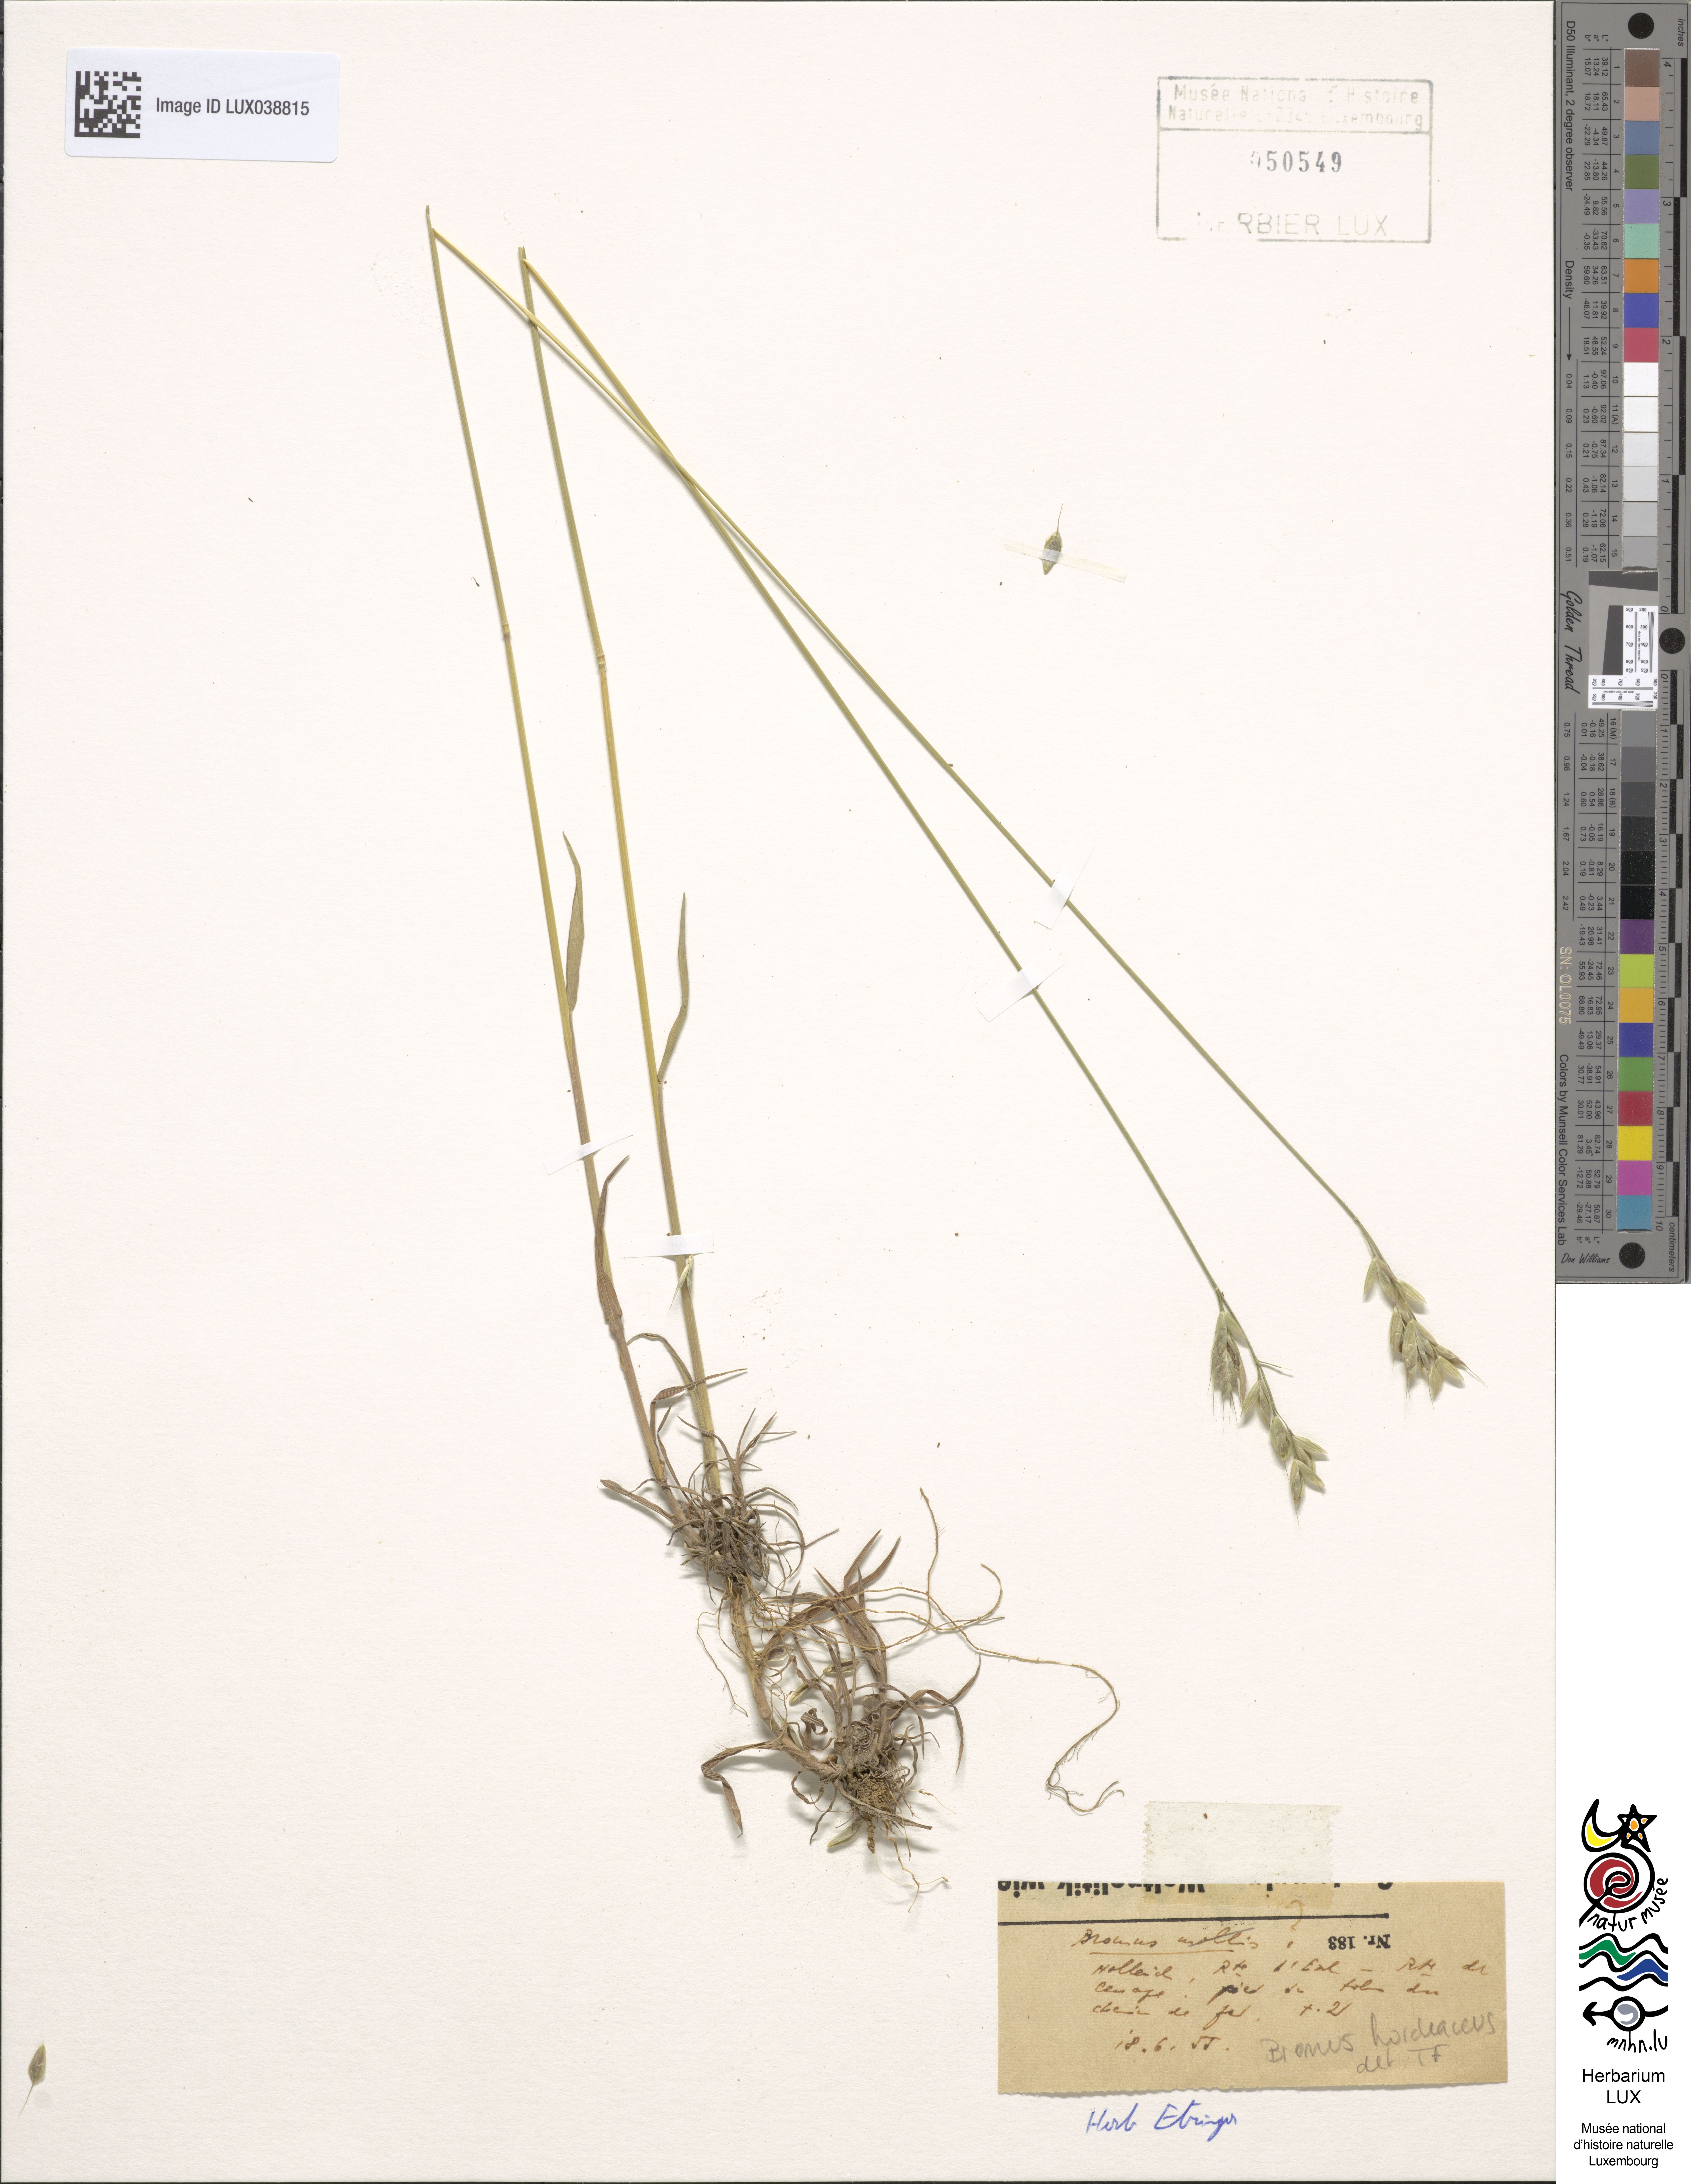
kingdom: Plantae
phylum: Tracheophyta
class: Liliopsida
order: Poales
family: Poaceae
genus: Bromus
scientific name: Bromus hordeaceus
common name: Soft brome
